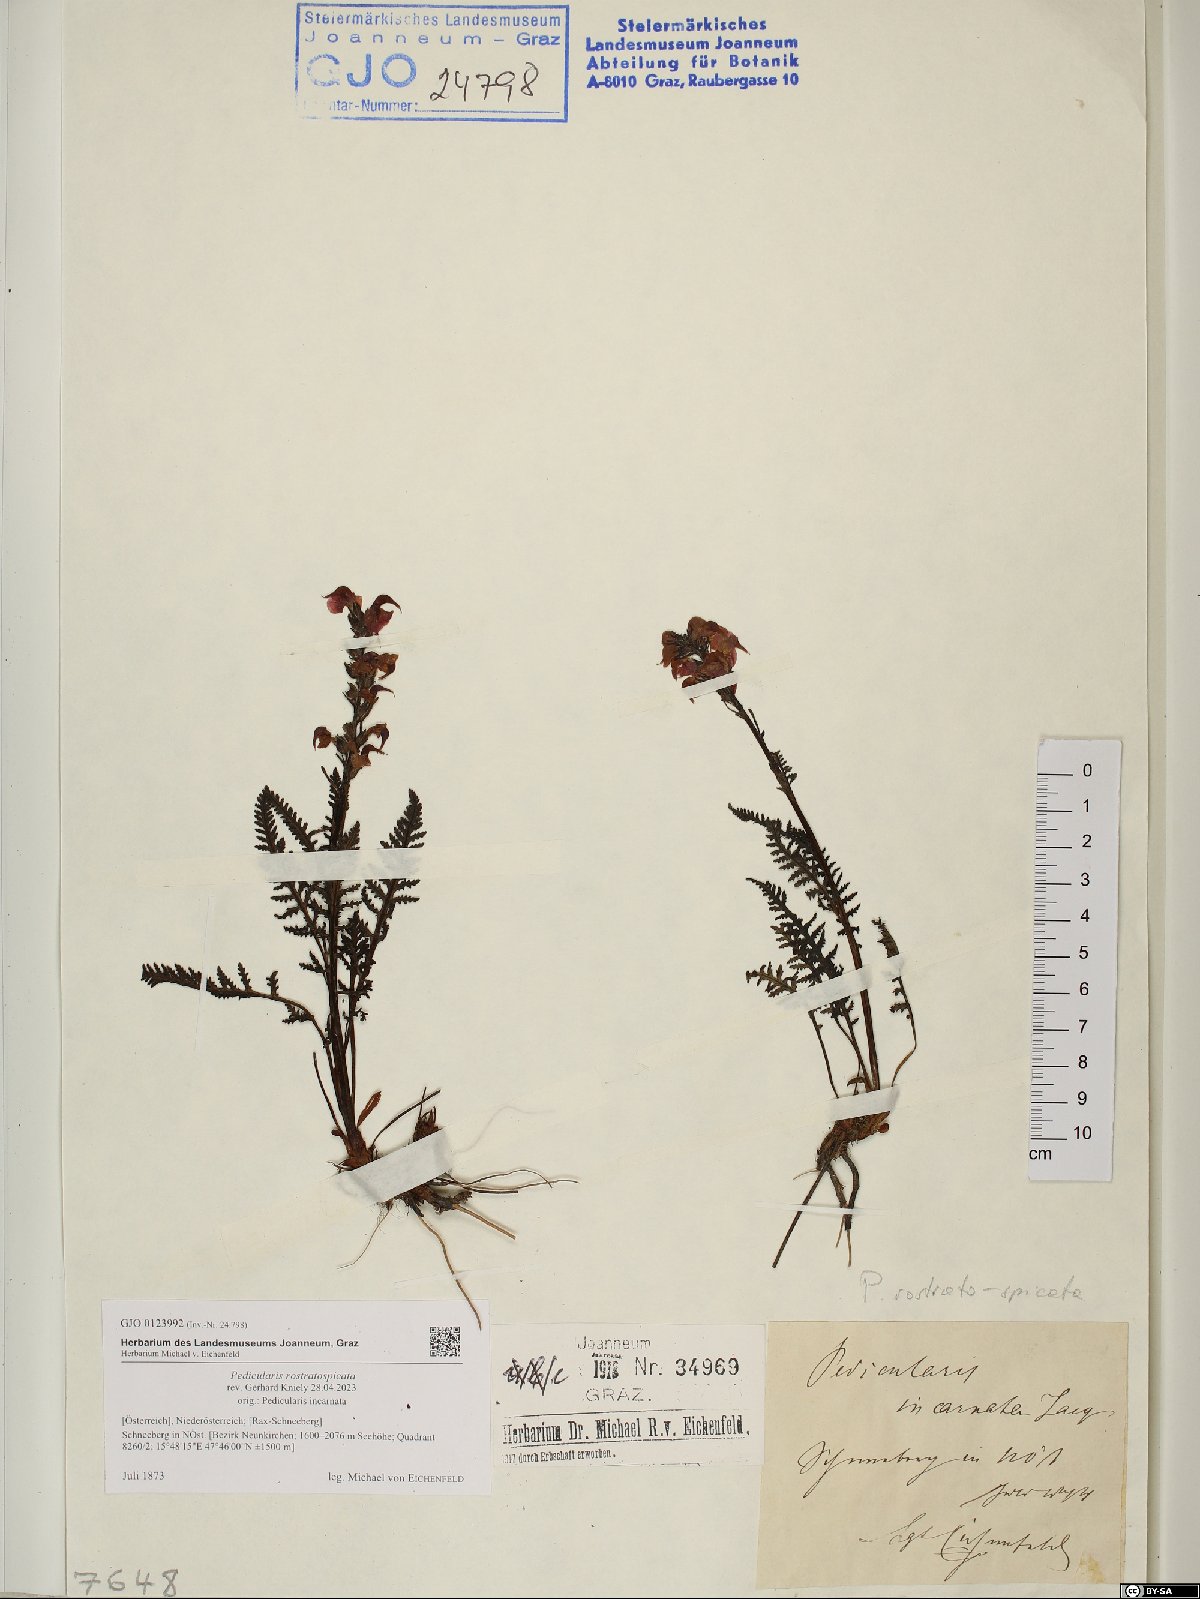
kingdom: Plantae
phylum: Tracheophyta
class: Magnoliopsida
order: Lamiales
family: Orobanchaceae
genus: Pedicularis
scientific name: Pedicularis rostratospicata
